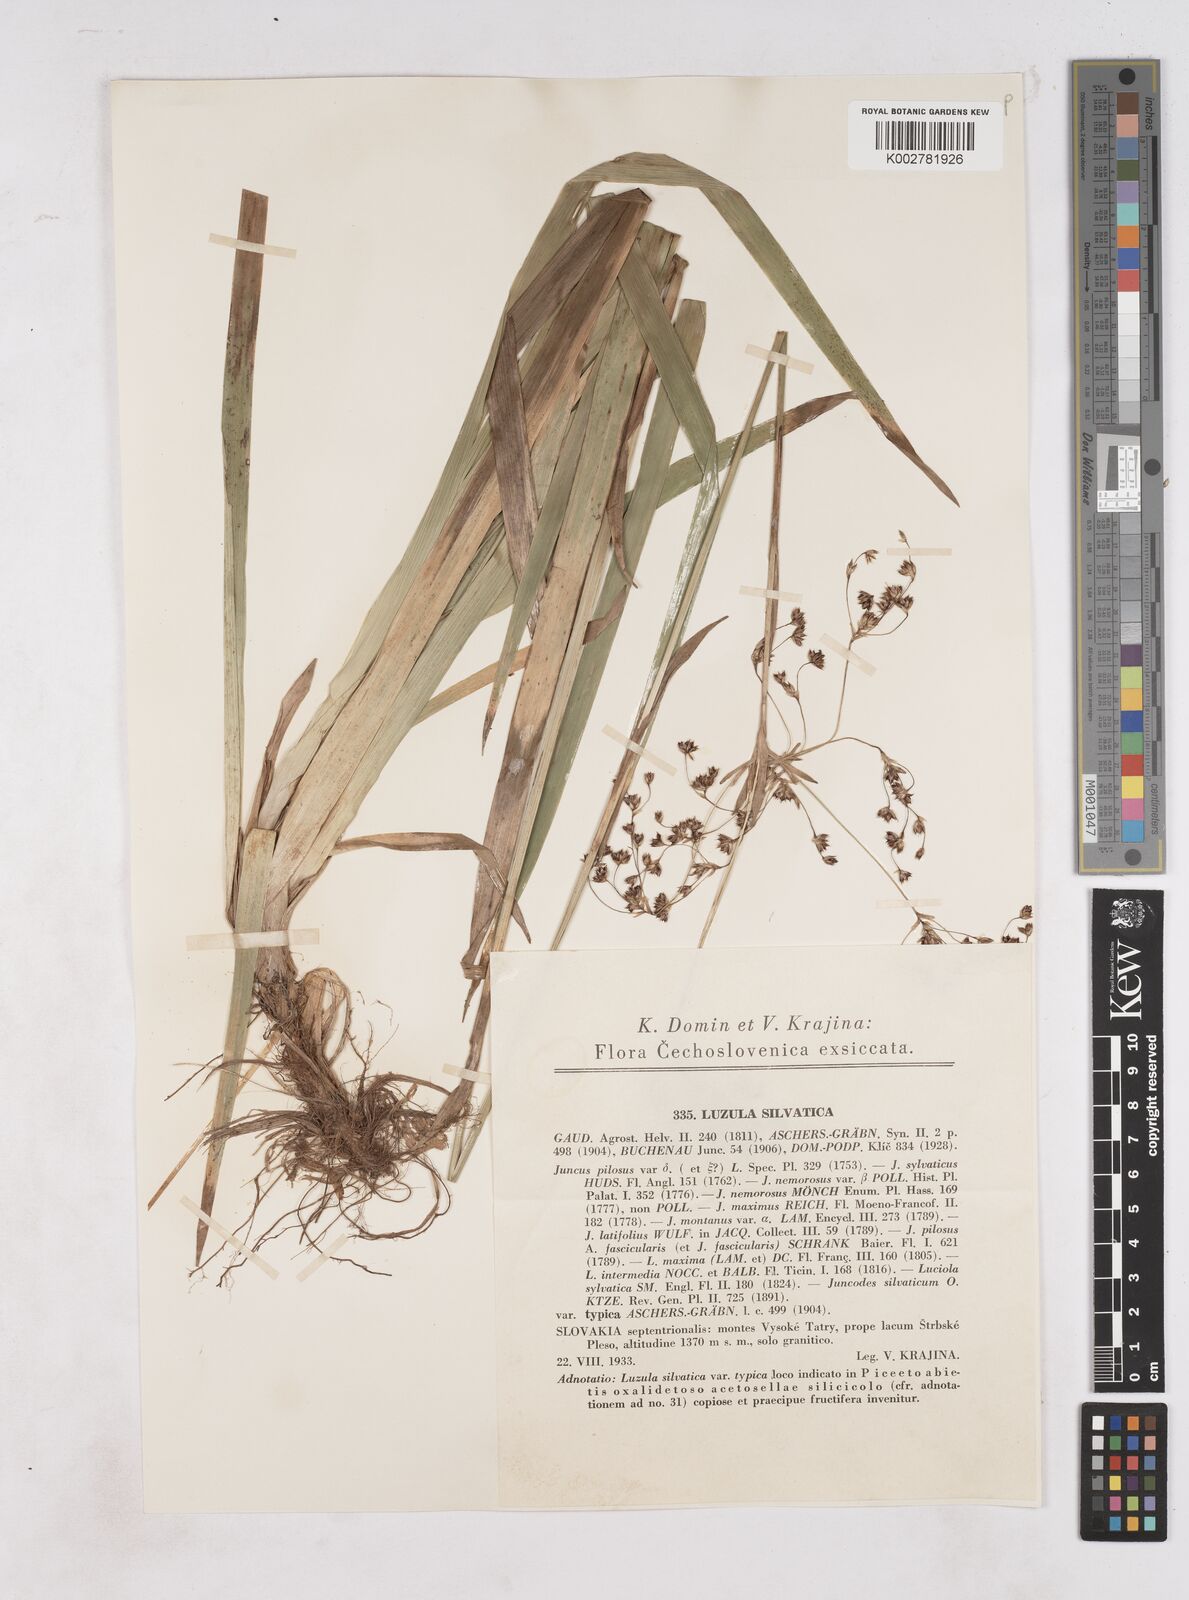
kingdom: Plantae
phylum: Tracheophyta
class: Liliopsida
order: Poales
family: Juncaceae
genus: Luzula
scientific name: Luzula sylvatica
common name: Great wood-rush
